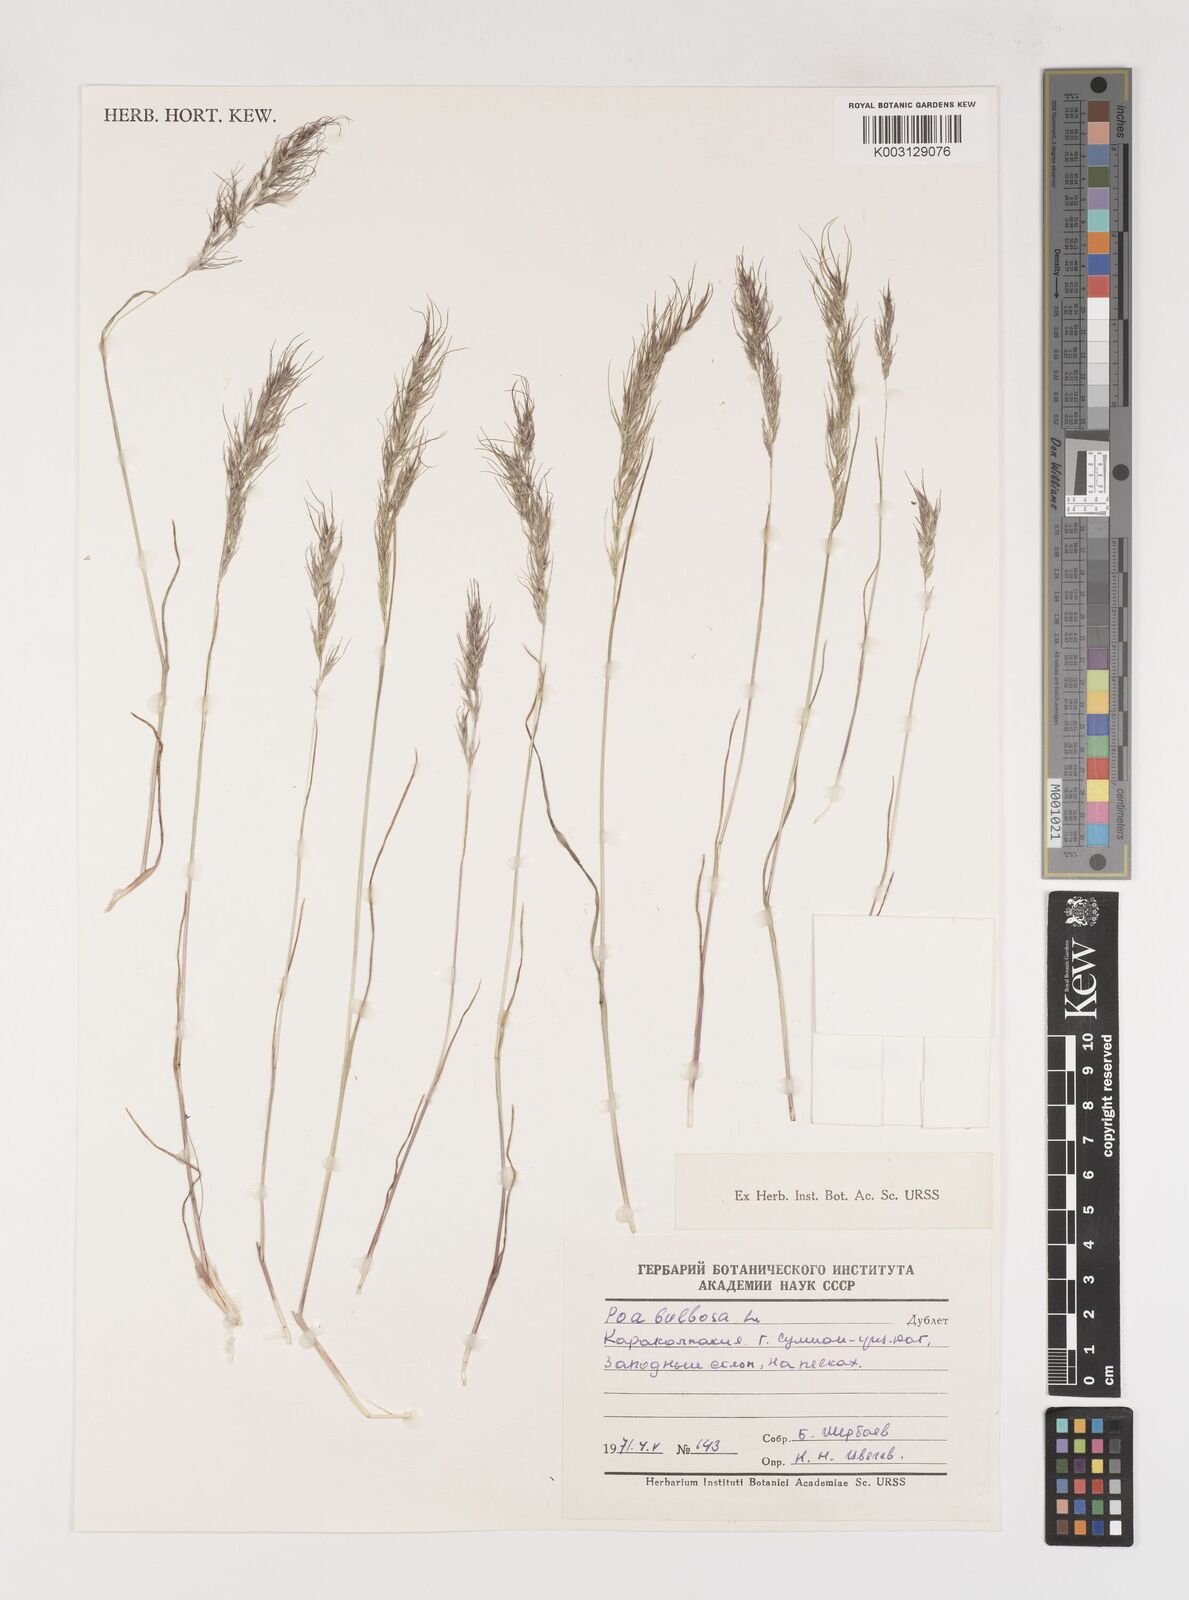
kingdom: Plantae
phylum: Tracheophyta
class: Liliopsida
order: Poales
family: Poaceae
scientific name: Poaceae
